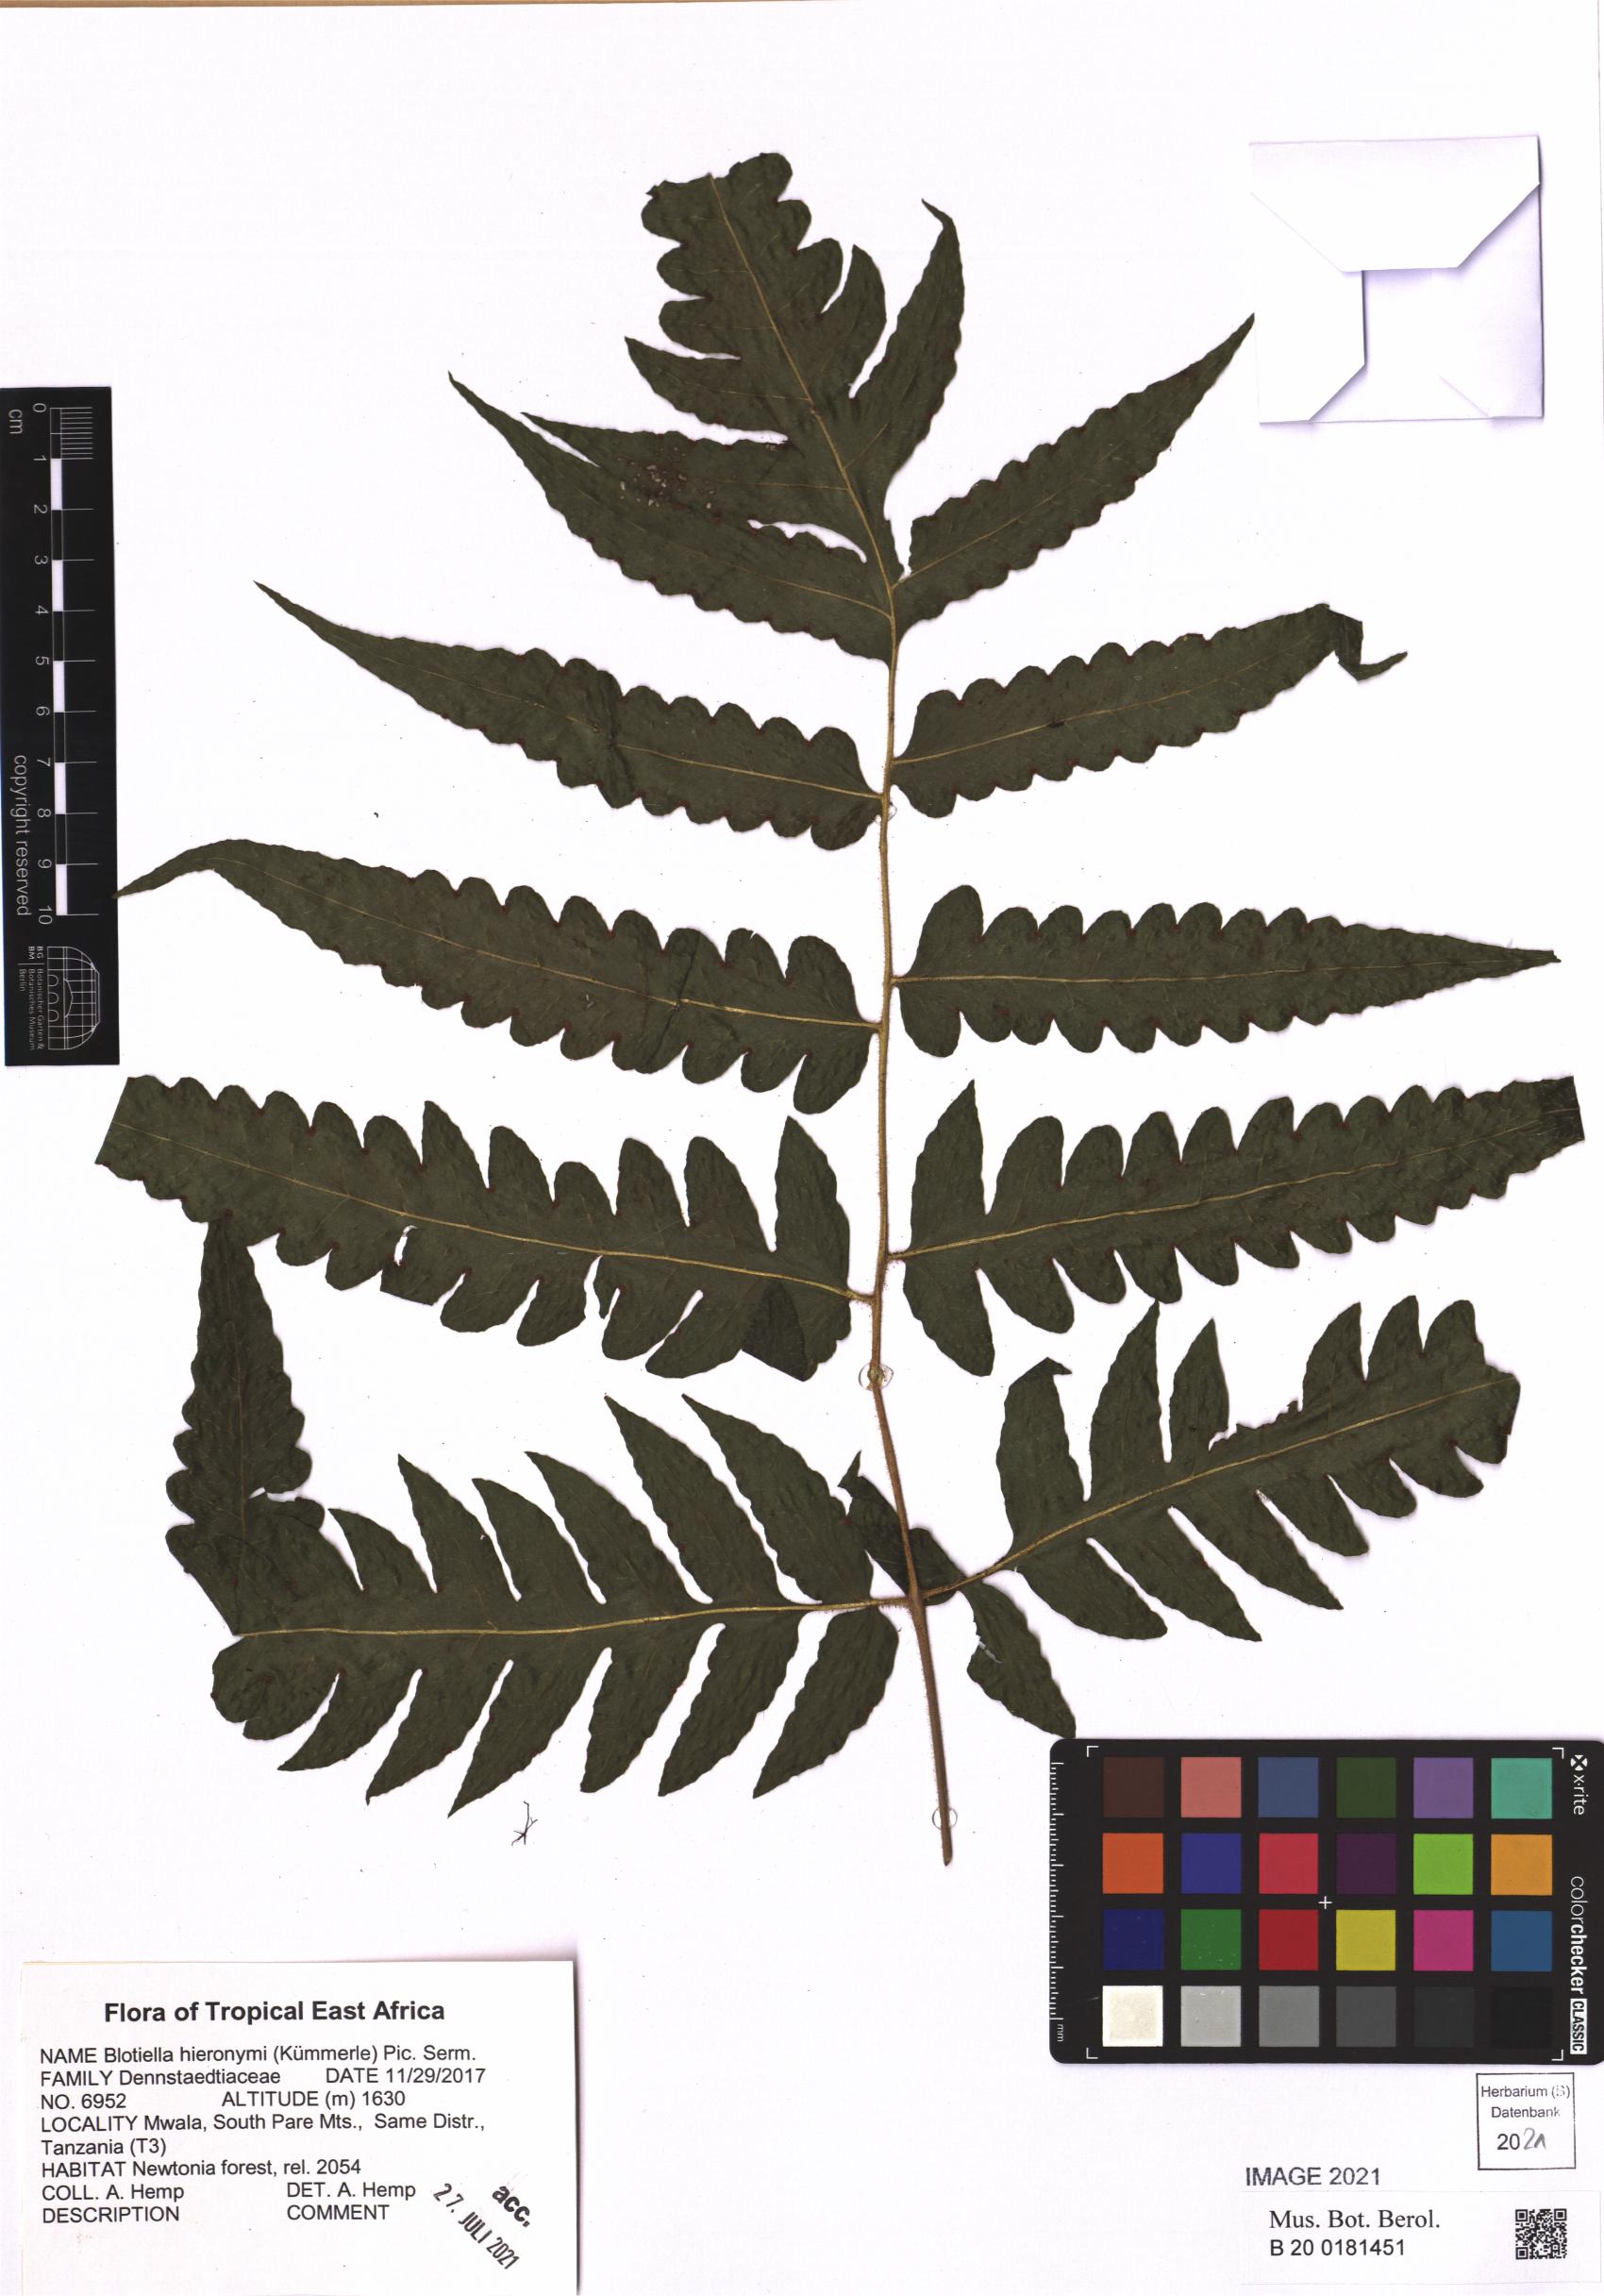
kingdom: Plantae
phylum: Tracheophyta
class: Polypodiopsida
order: Polypodiales
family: Dennstaedtiaceae
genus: Blotiella
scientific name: Blotiella hieronymi
